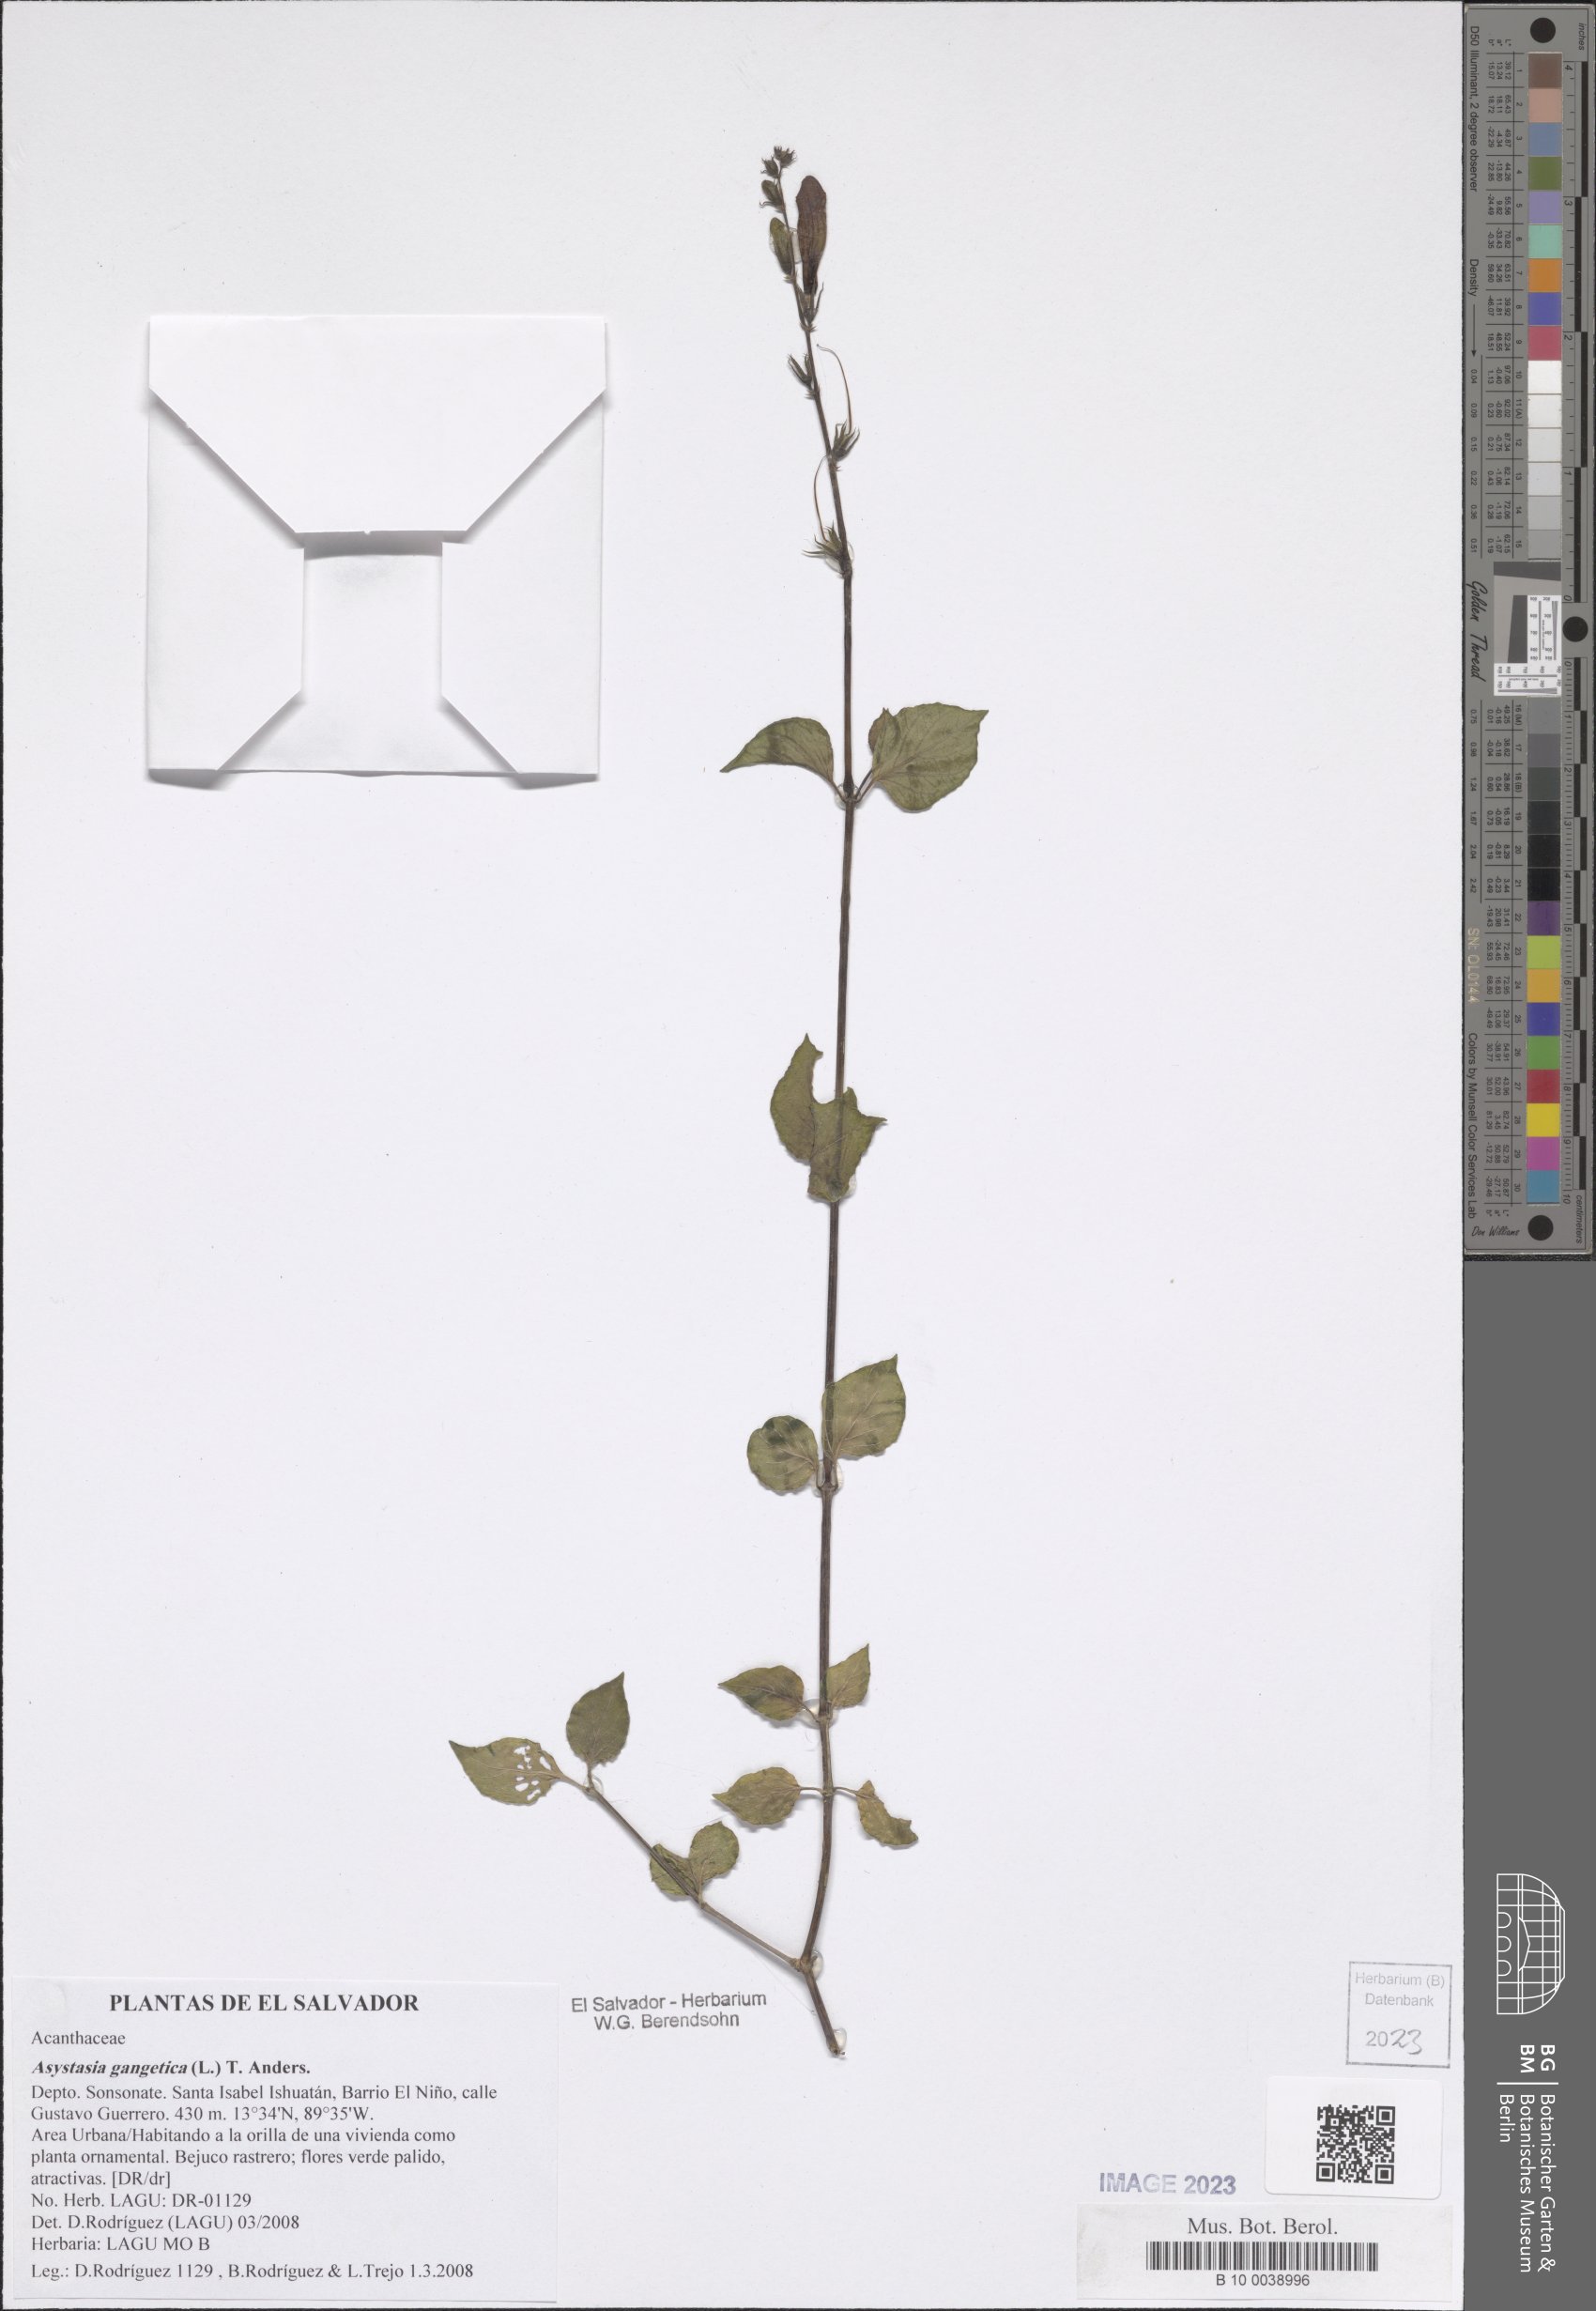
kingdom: Plantae
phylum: Tracheophyta
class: Magnoliopsida
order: Lamiales
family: Acanthaceae
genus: Asystasia
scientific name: Asystasia gangetica
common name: Chinese violet
